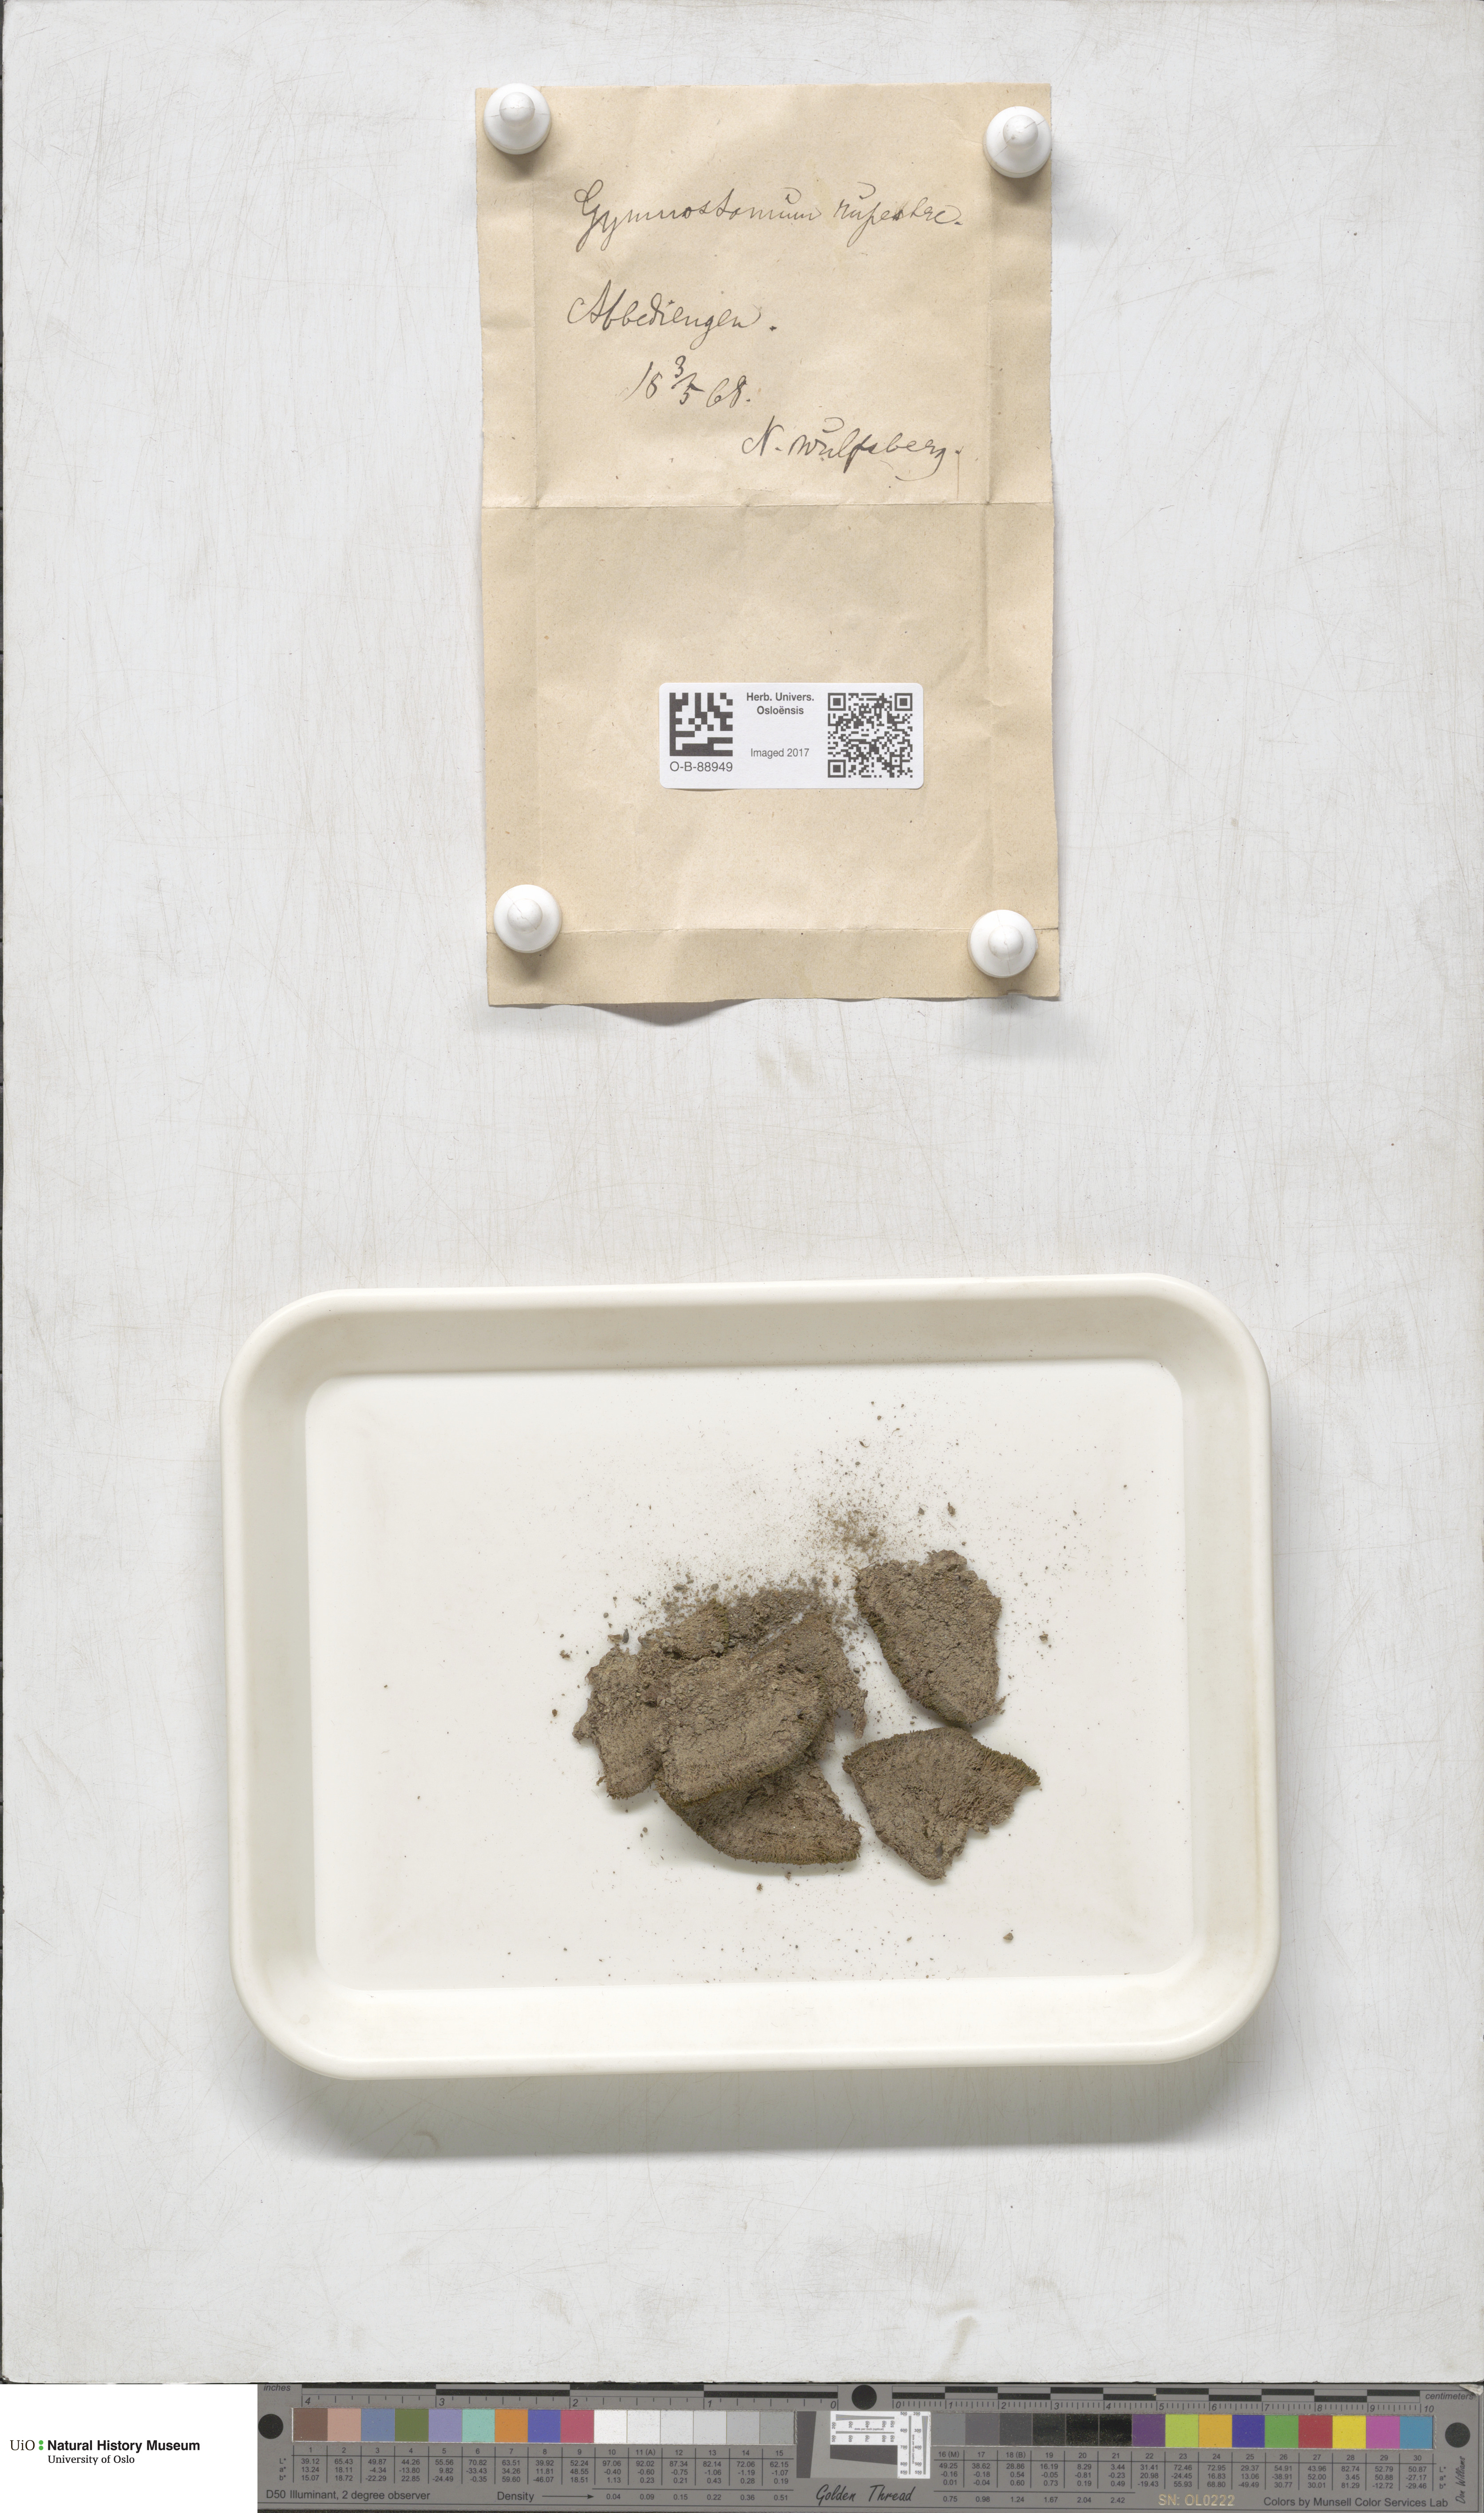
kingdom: Plantae
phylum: Bryophyta
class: Bryopsida
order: Pottiales
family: Pottiaceae
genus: Gymnostomum
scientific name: Gymnostomum aeruginosum
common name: Verdigris tufa-moss
